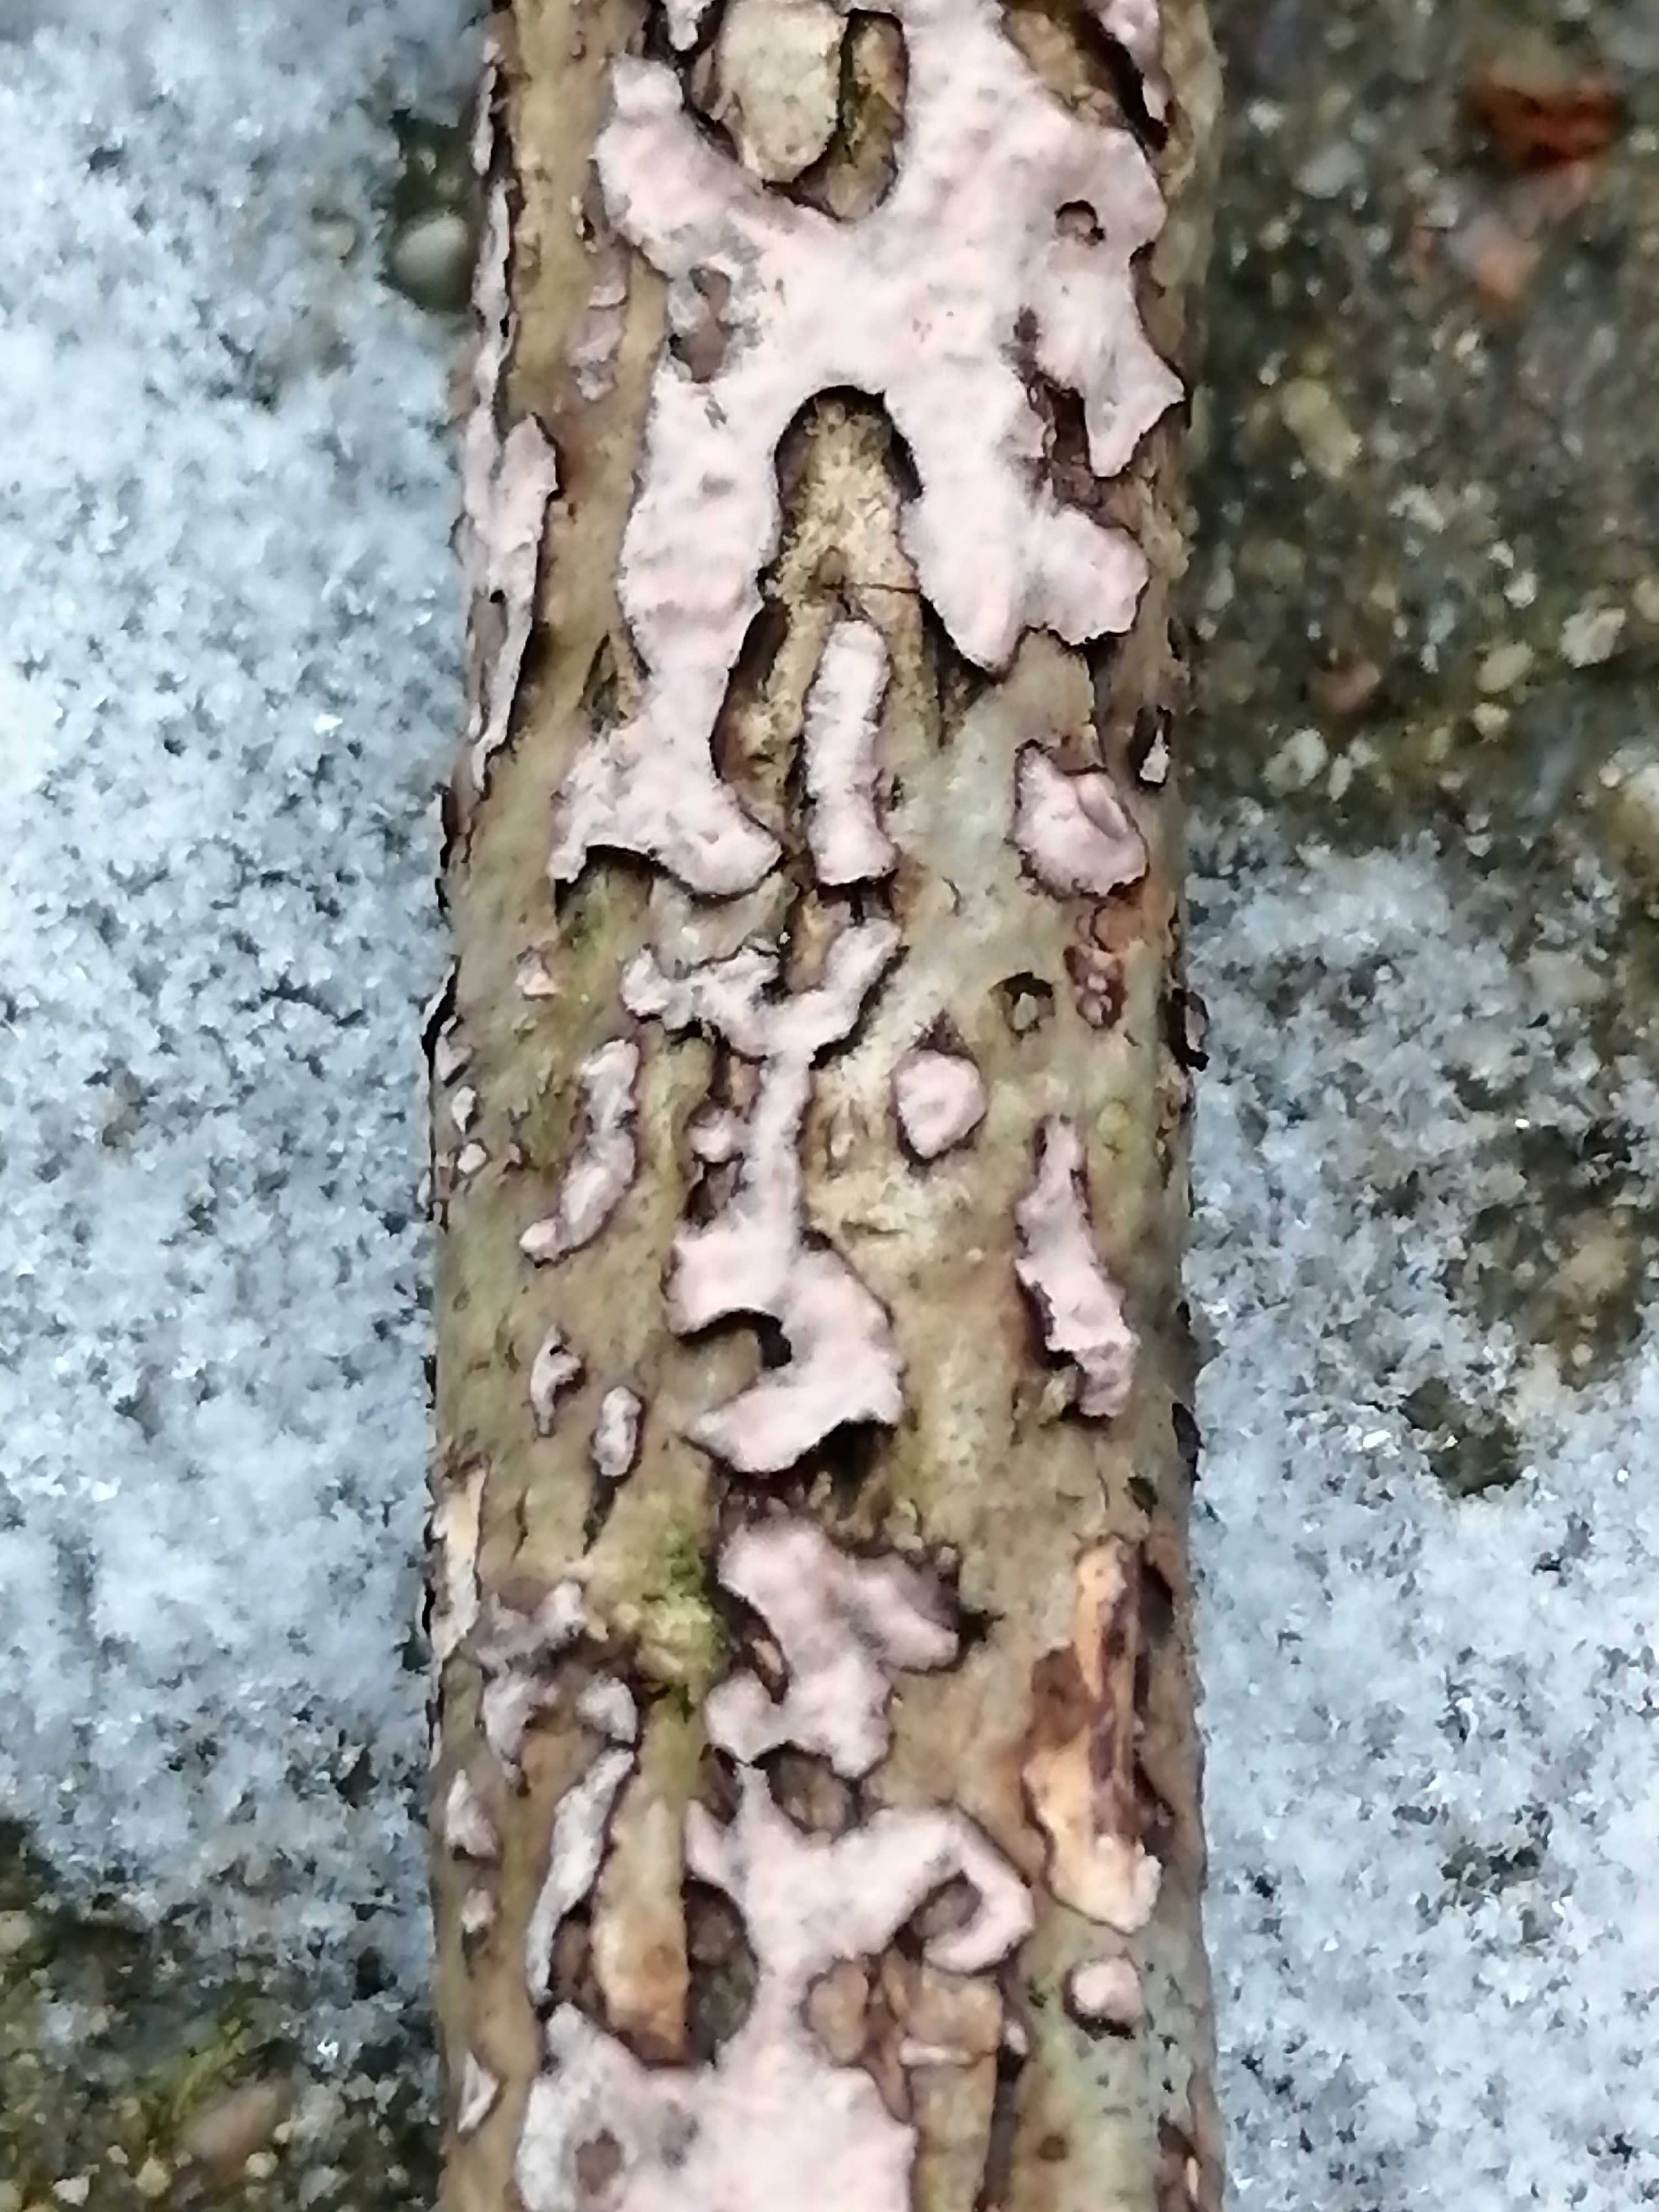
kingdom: Fungi
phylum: Basidiomycota
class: Agaricomycetes
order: Russulales
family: Peniophoraceae
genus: Peniophora
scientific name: Peniophora quercina
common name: ege-voksskind
